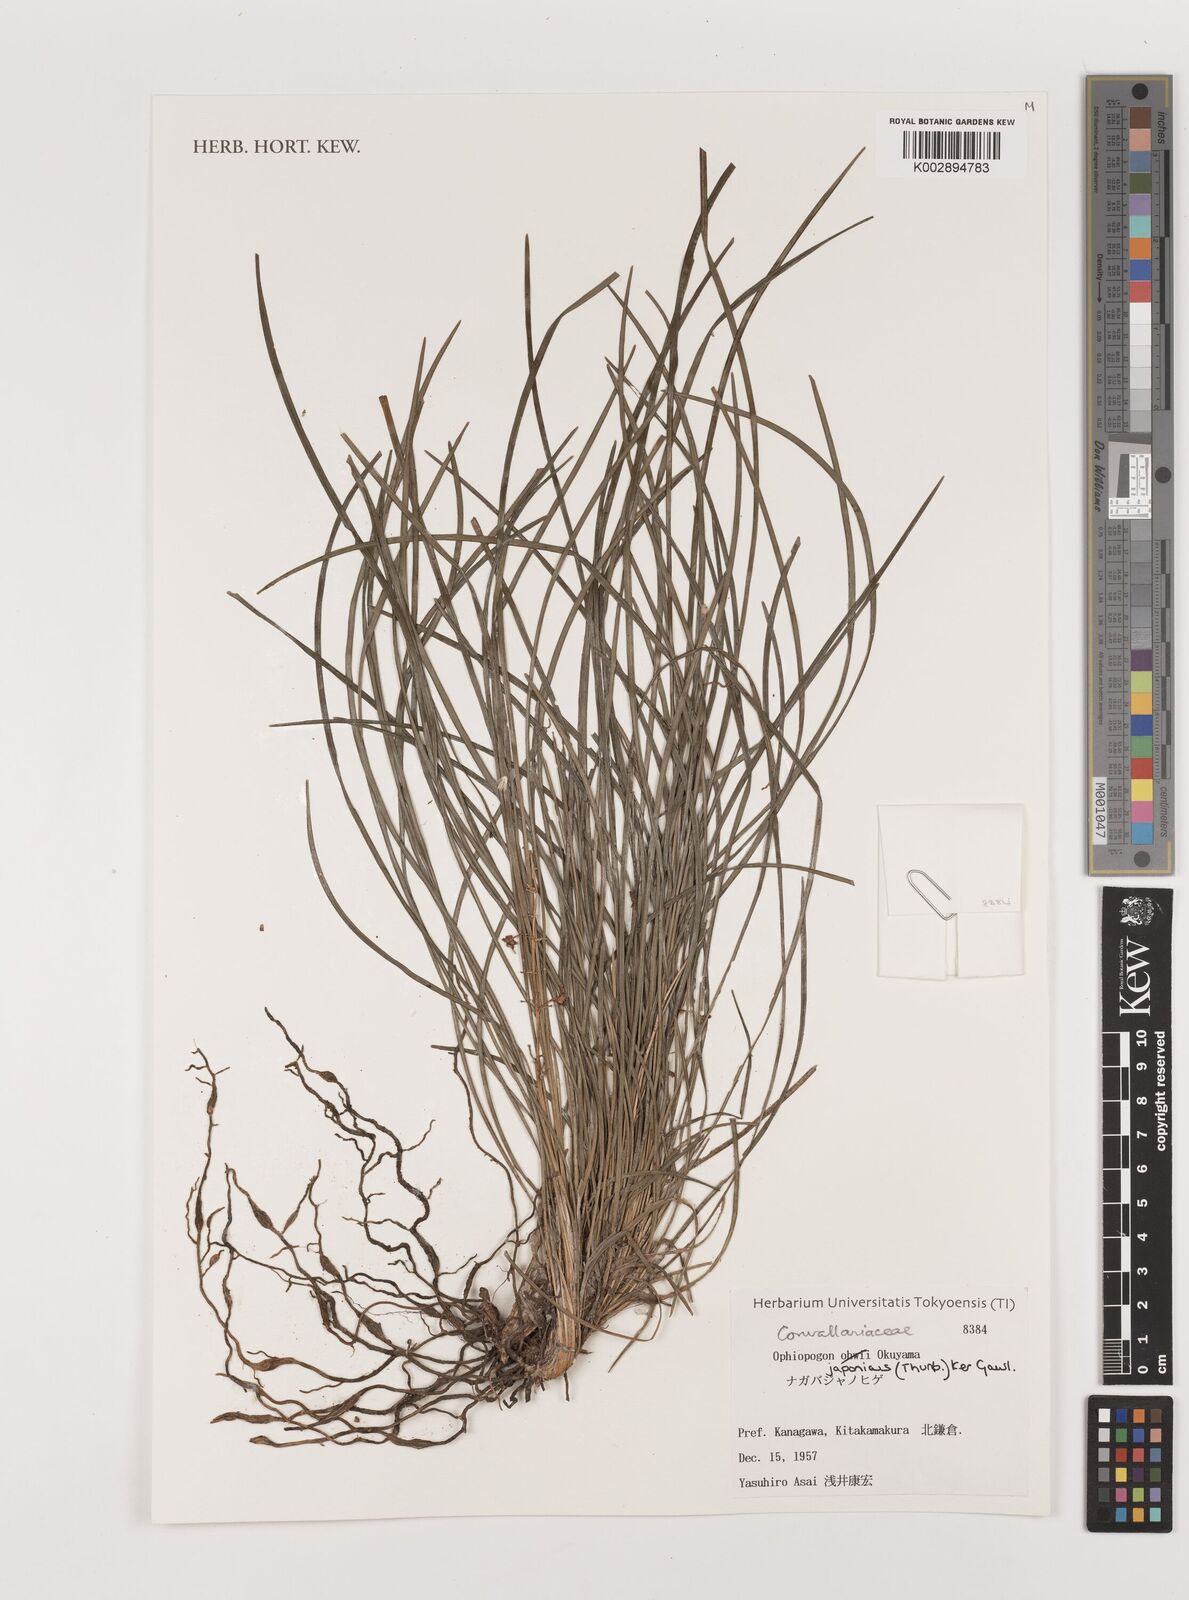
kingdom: Plantae
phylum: Tracheophyta
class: Liliopsida
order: Asparagales
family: Asparagaceae
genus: Ophiopogon
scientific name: Ophiopogon japonicus
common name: Dwarf lilyturf
